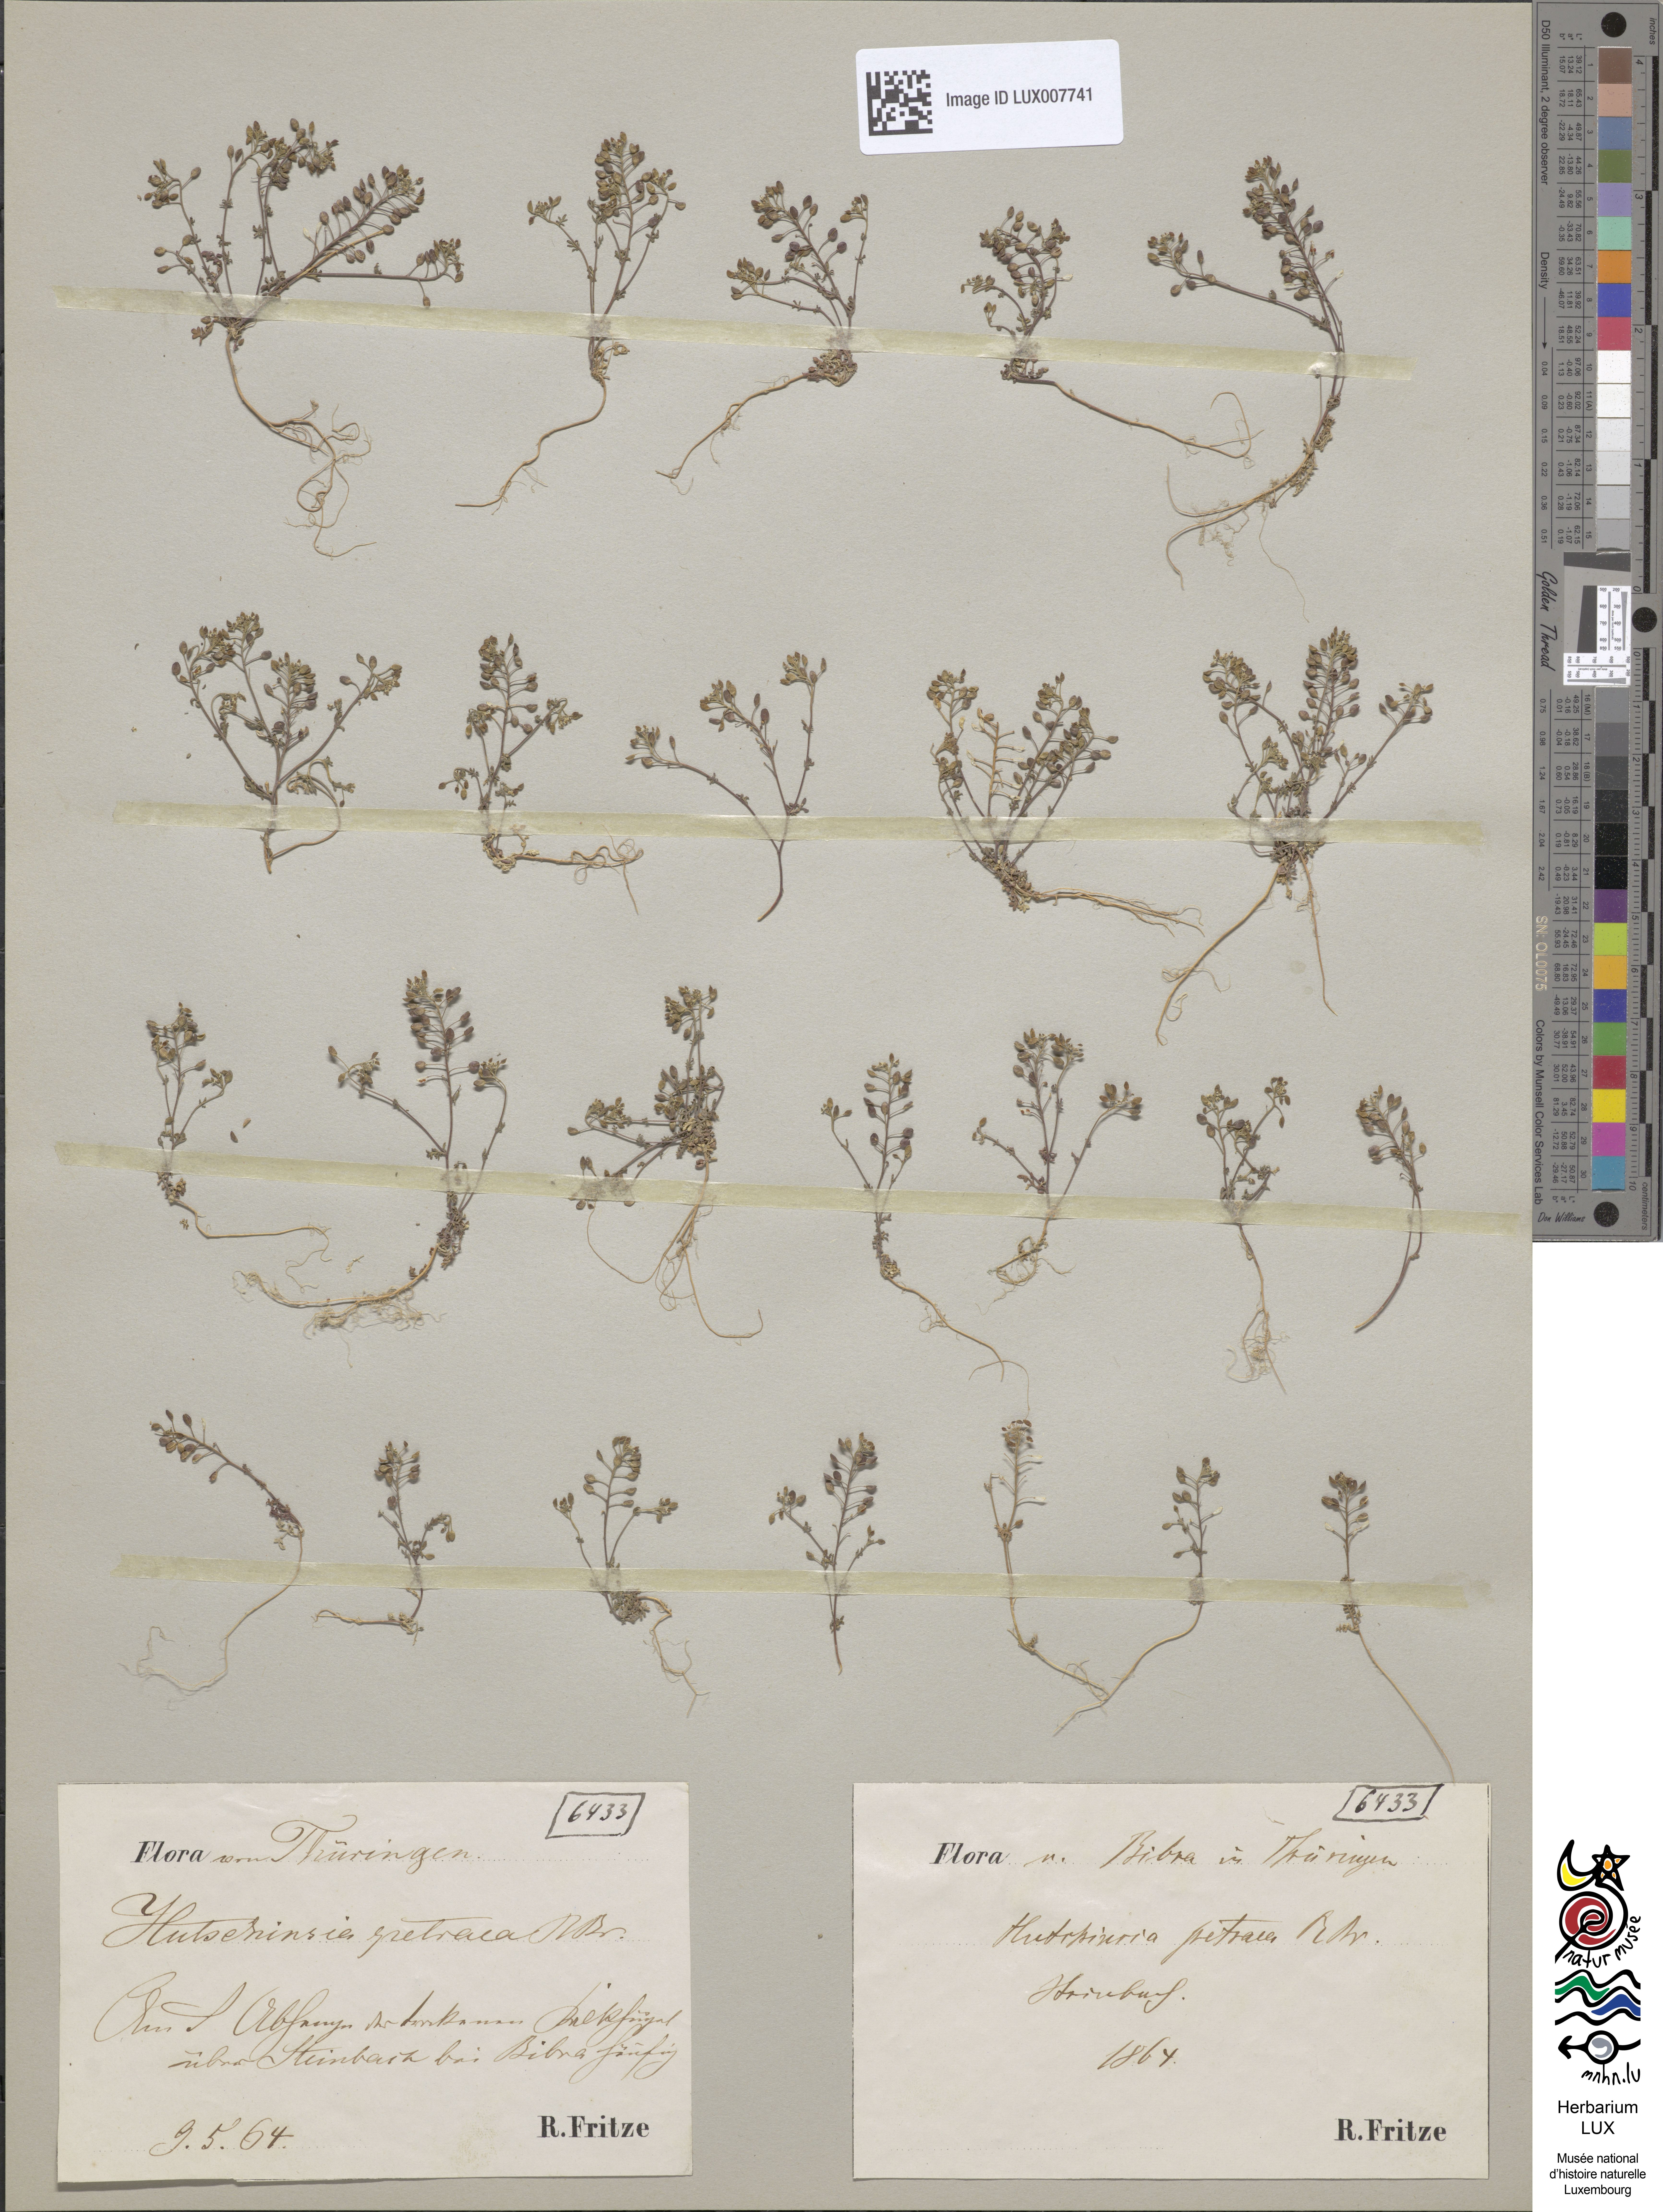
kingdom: Plantae
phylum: Tracheophyta
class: Magnoliopsida
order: Brassicales
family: Brassicaceae
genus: Hornungia
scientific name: Hornungia petraea
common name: Hutchinsia
